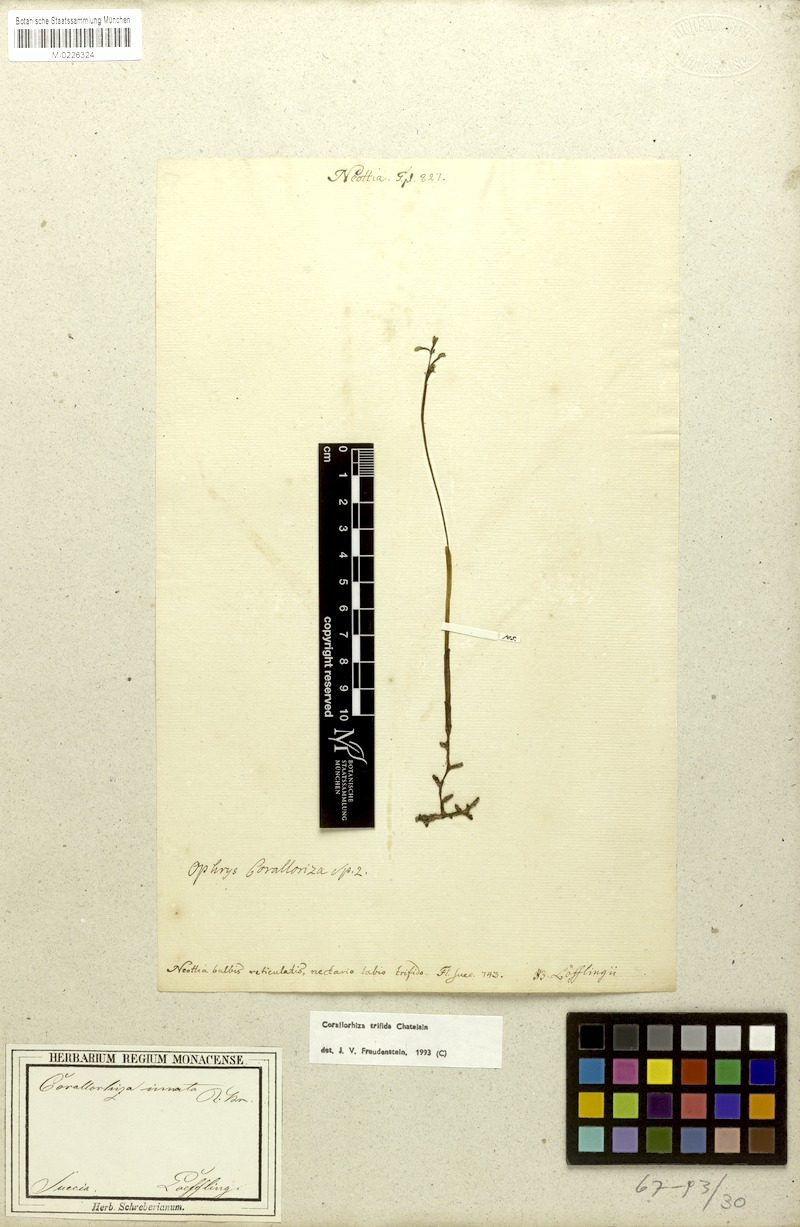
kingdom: Plantae
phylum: Tracheophyta
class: Liliopsida
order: Asparagales
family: Orchidaceae
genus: Corallorhiza
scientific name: Corallorhiza trifida
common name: Yellow coralroot
